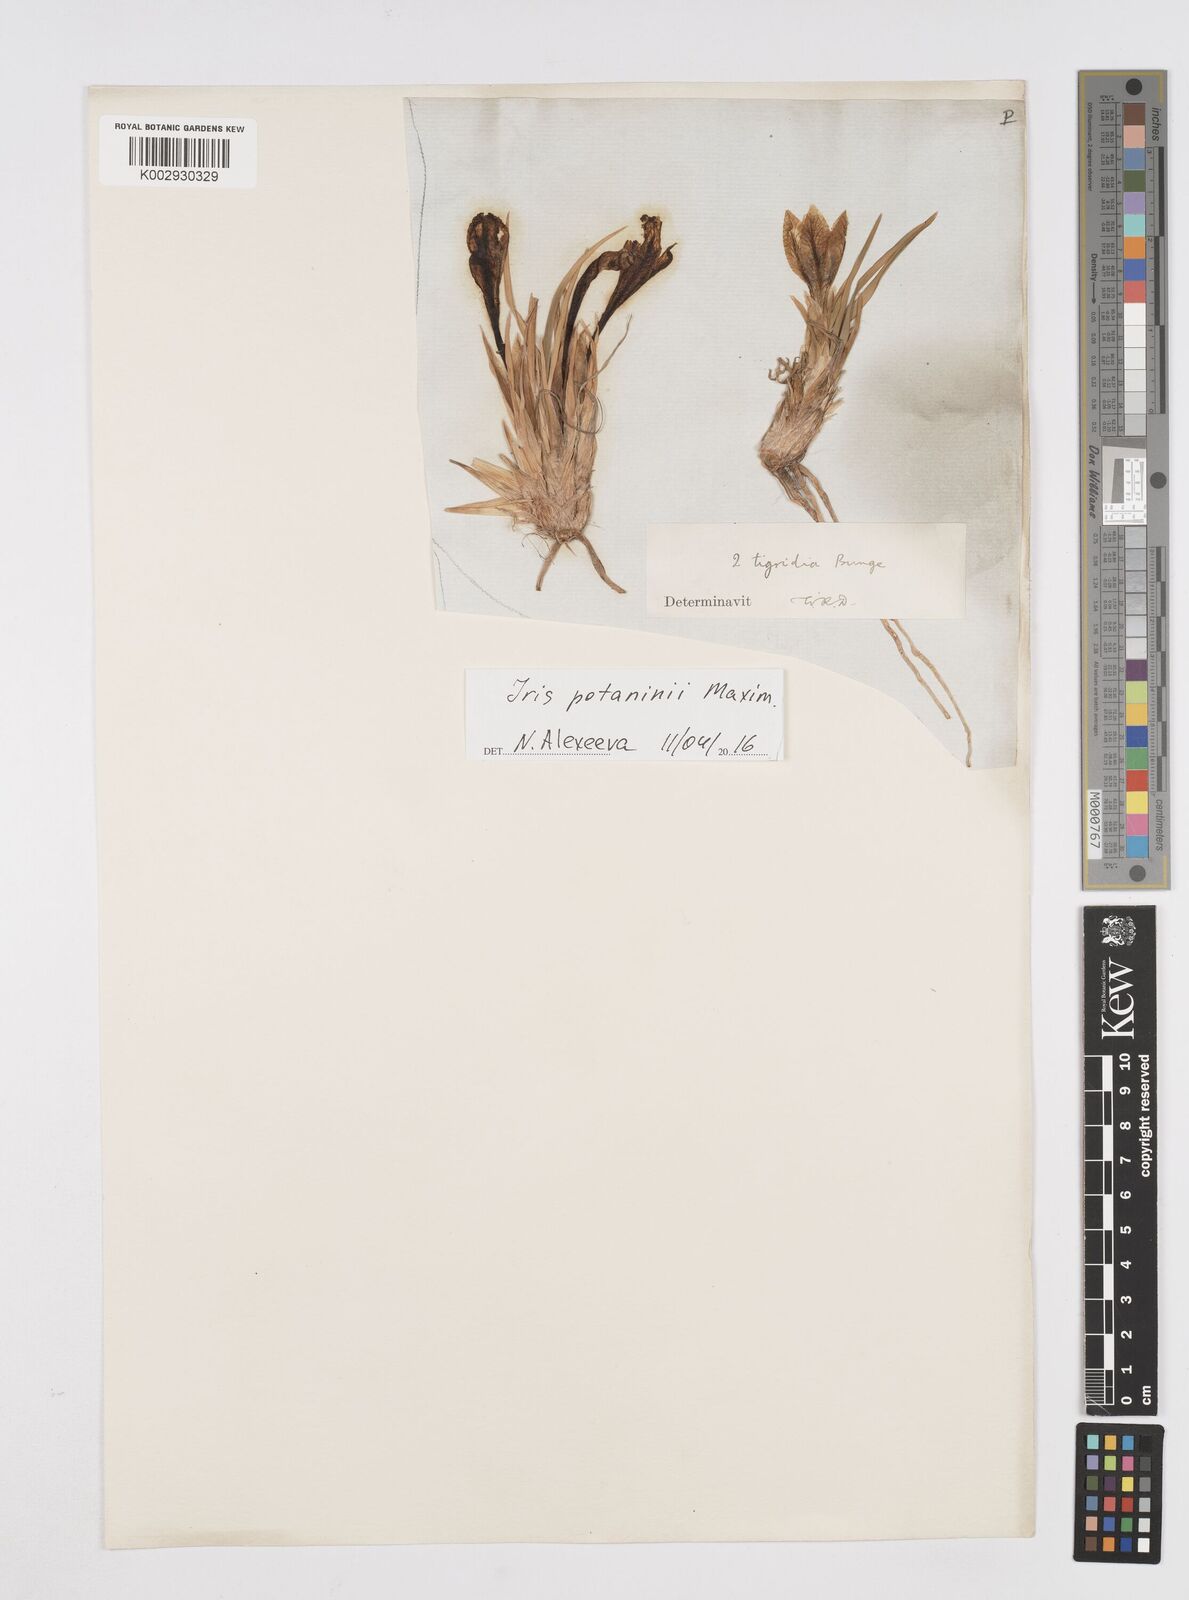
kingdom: Plantae
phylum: Tracheophyta
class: Liliopsida
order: Asparagales
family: Iridaceae
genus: Iris
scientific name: Iris tigridia
